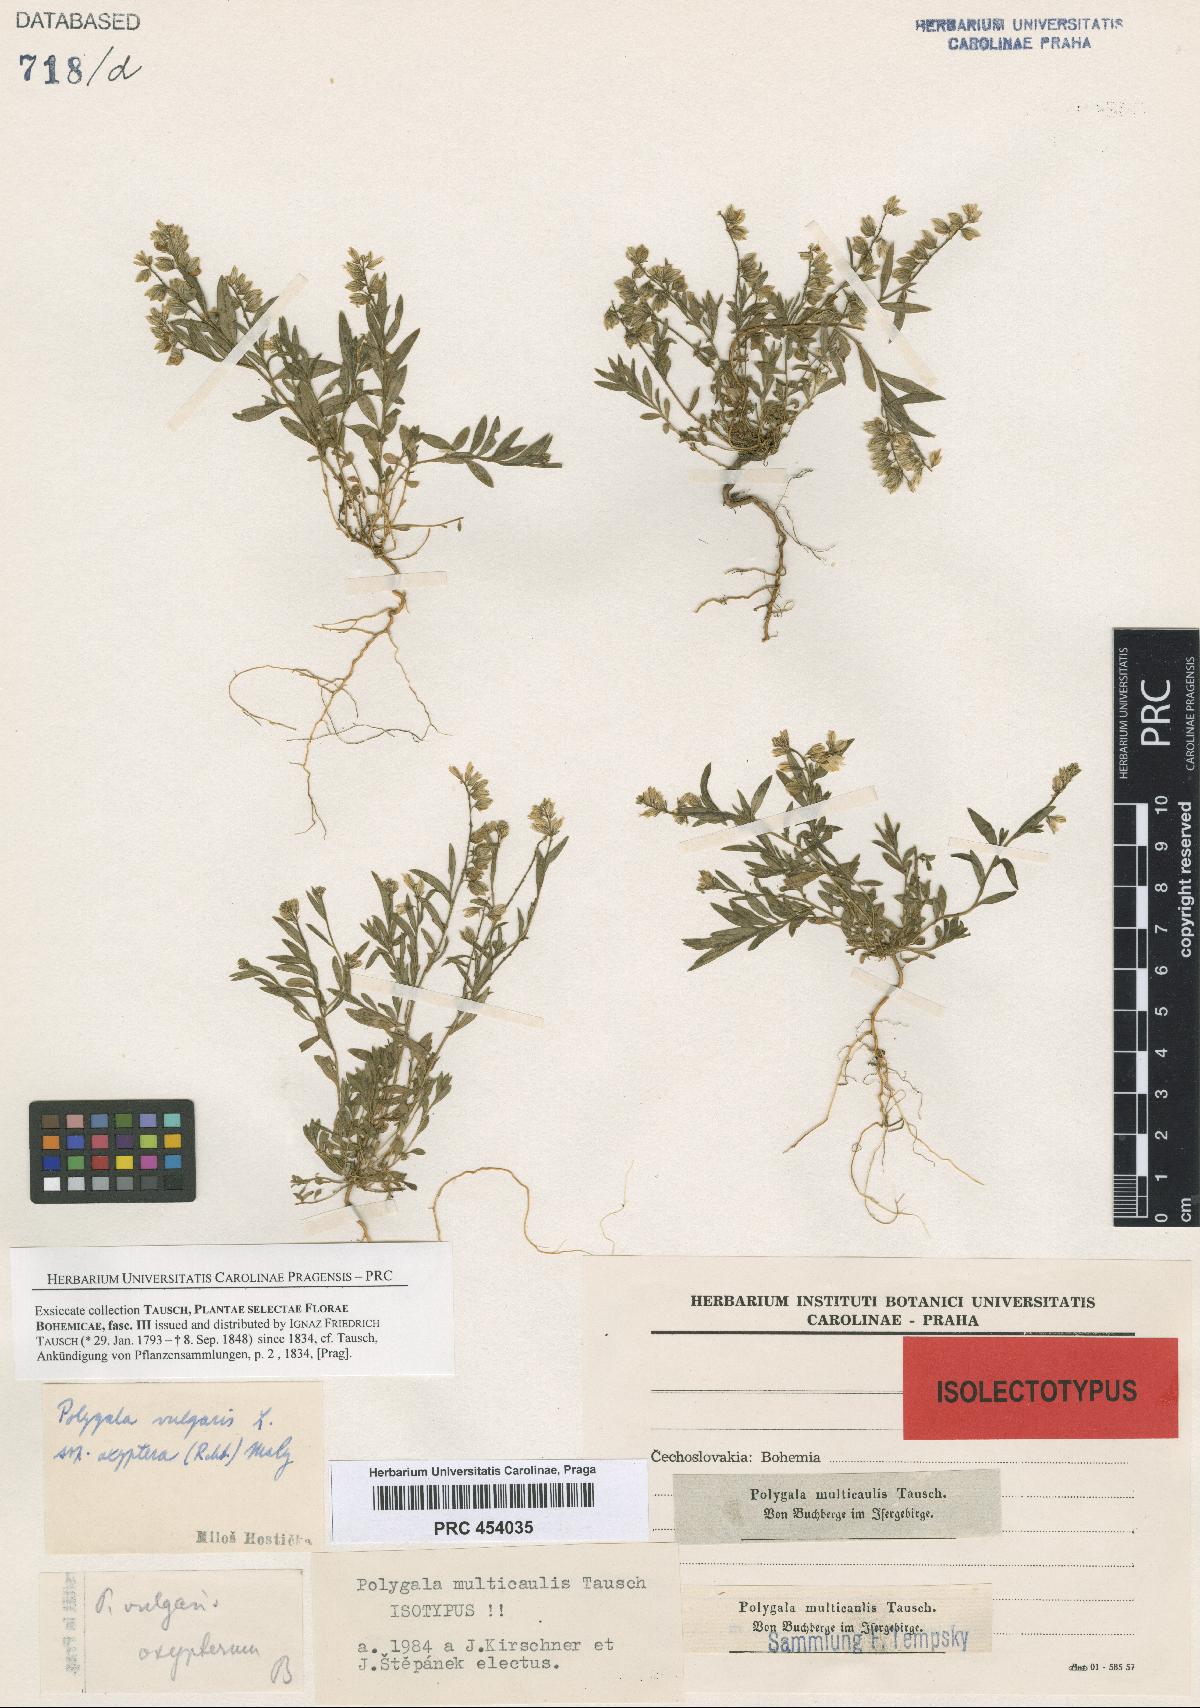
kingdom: Plantae
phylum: Tracheophyta
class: Magnoliopsida
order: Fabales
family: Polygalaceae
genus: Polygala
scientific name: Polygala vulgaris
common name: Common milkwort
